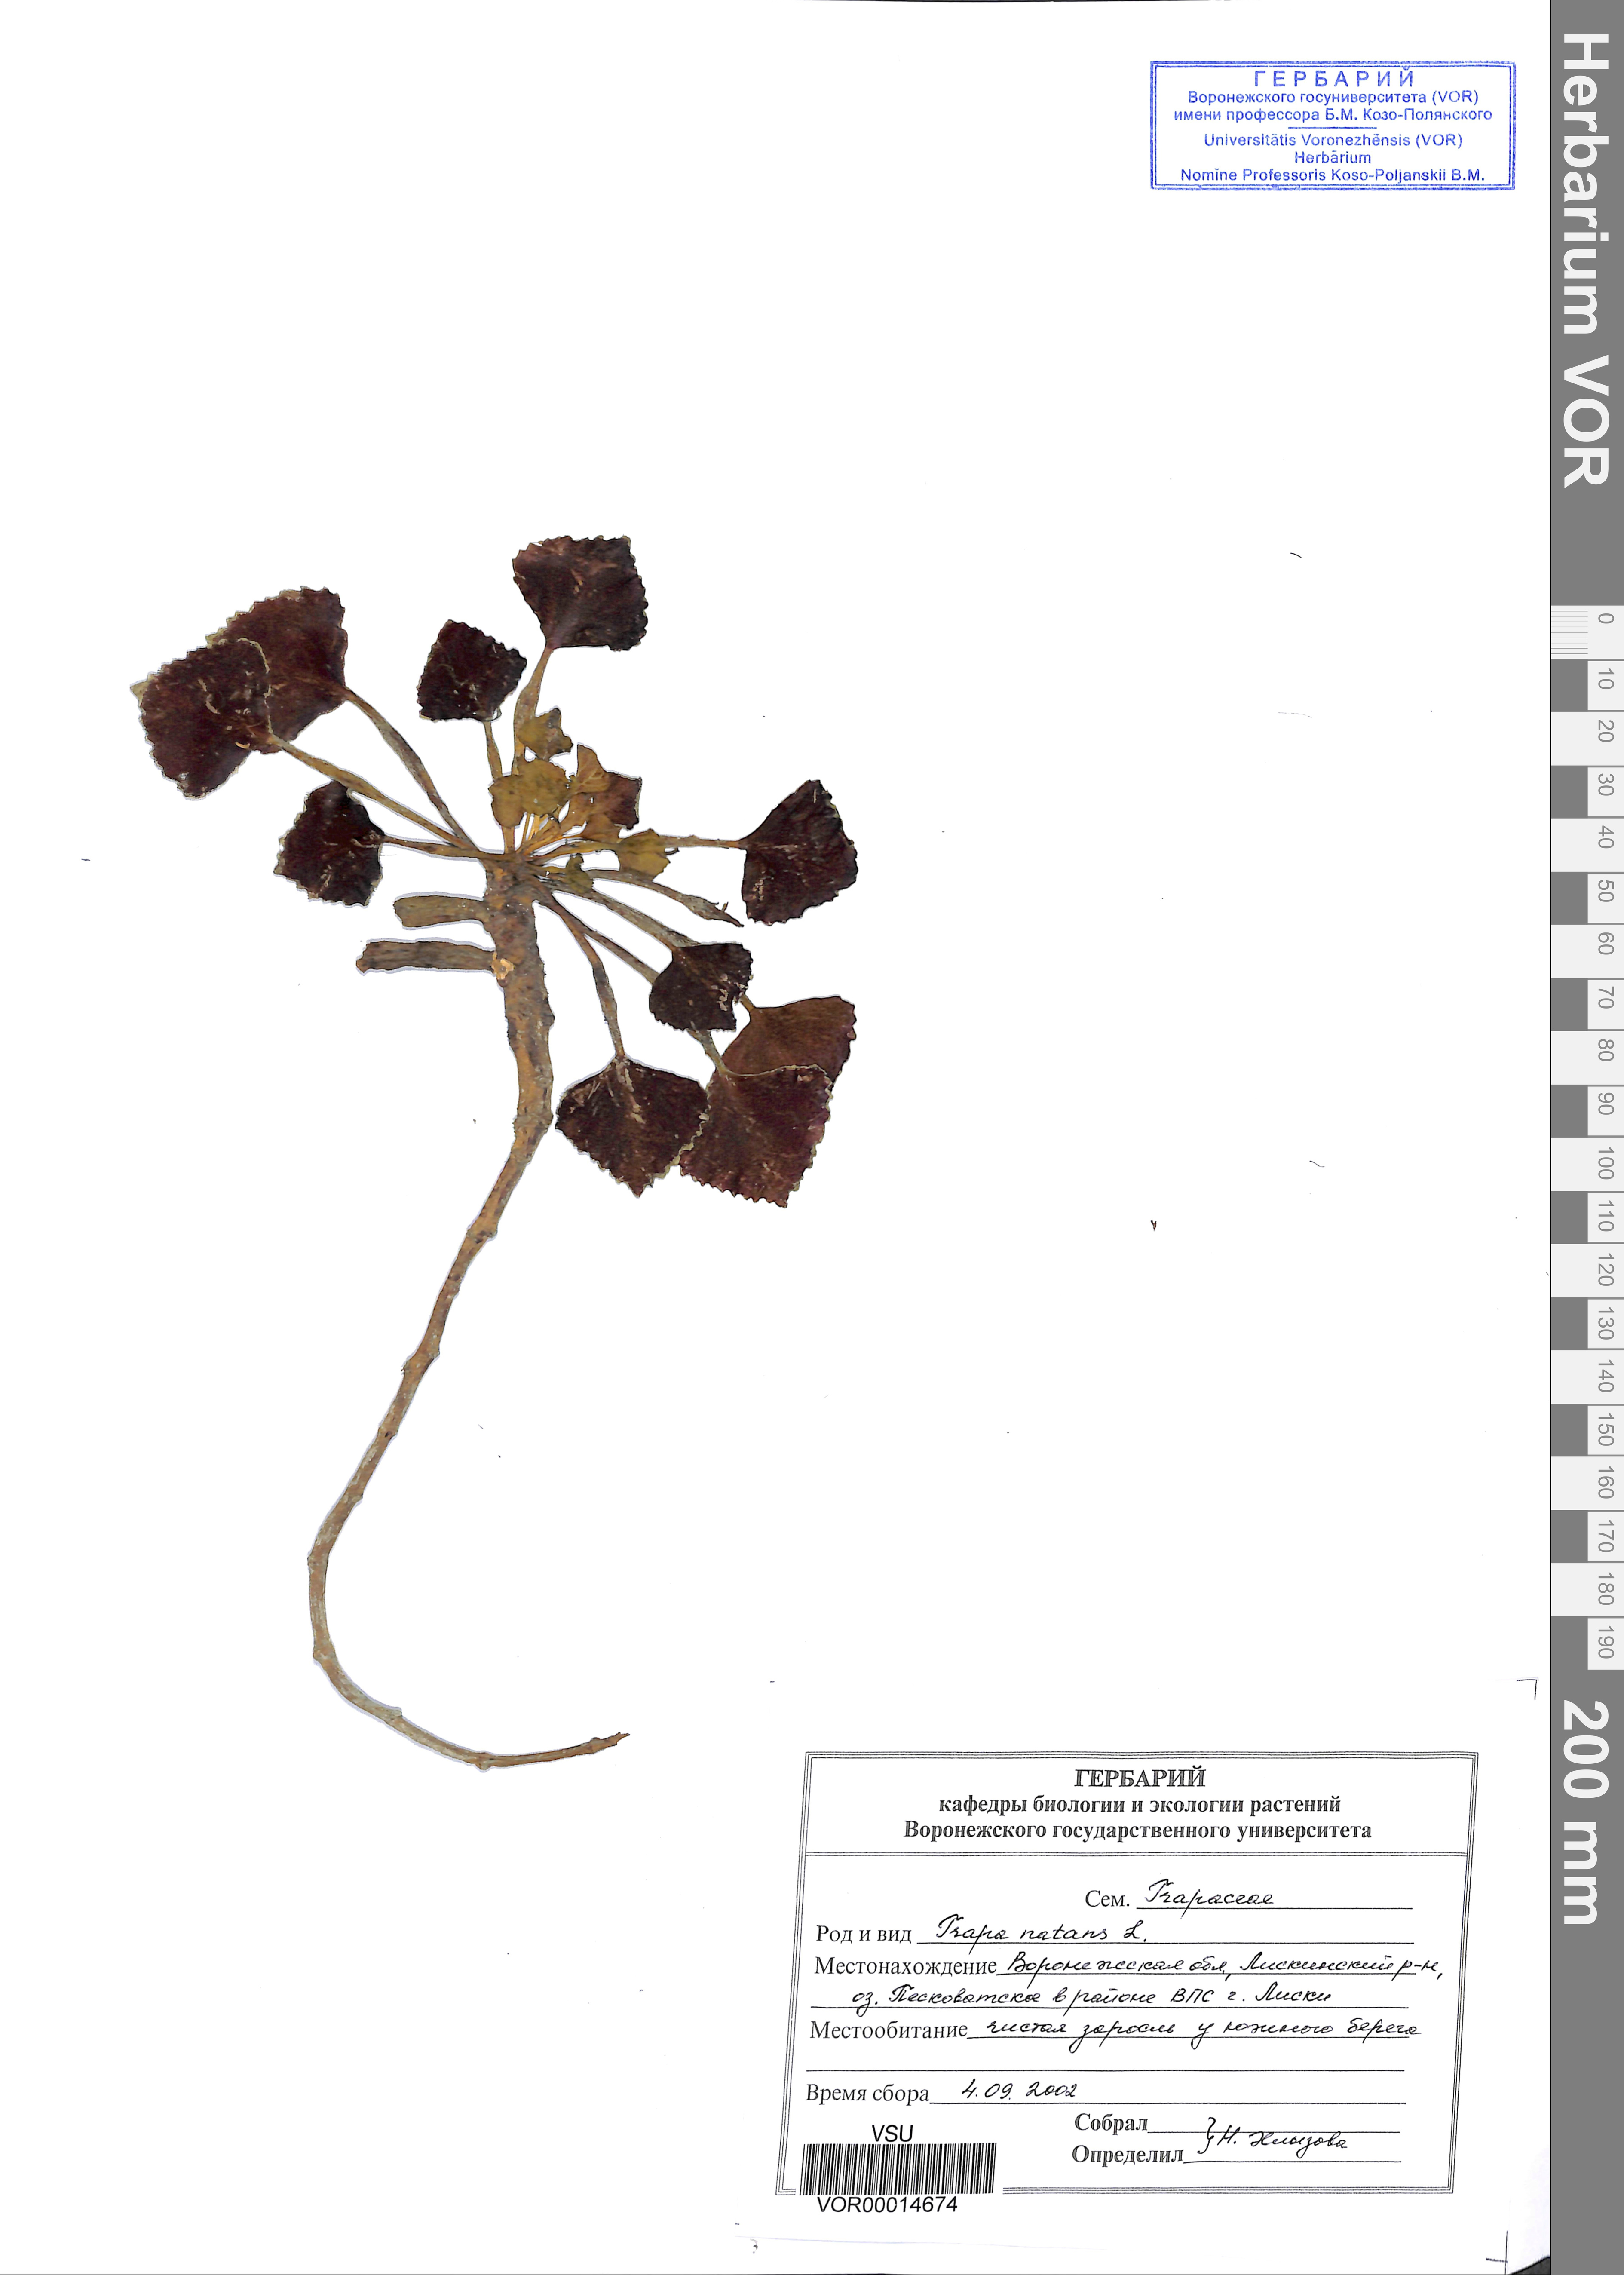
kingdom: Plantae
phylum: Tracheophyta
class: Magnoliopsida
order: Myrtales
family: Lythraceae
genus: Trapa
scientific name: Trapa natans
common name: Water chestnut
